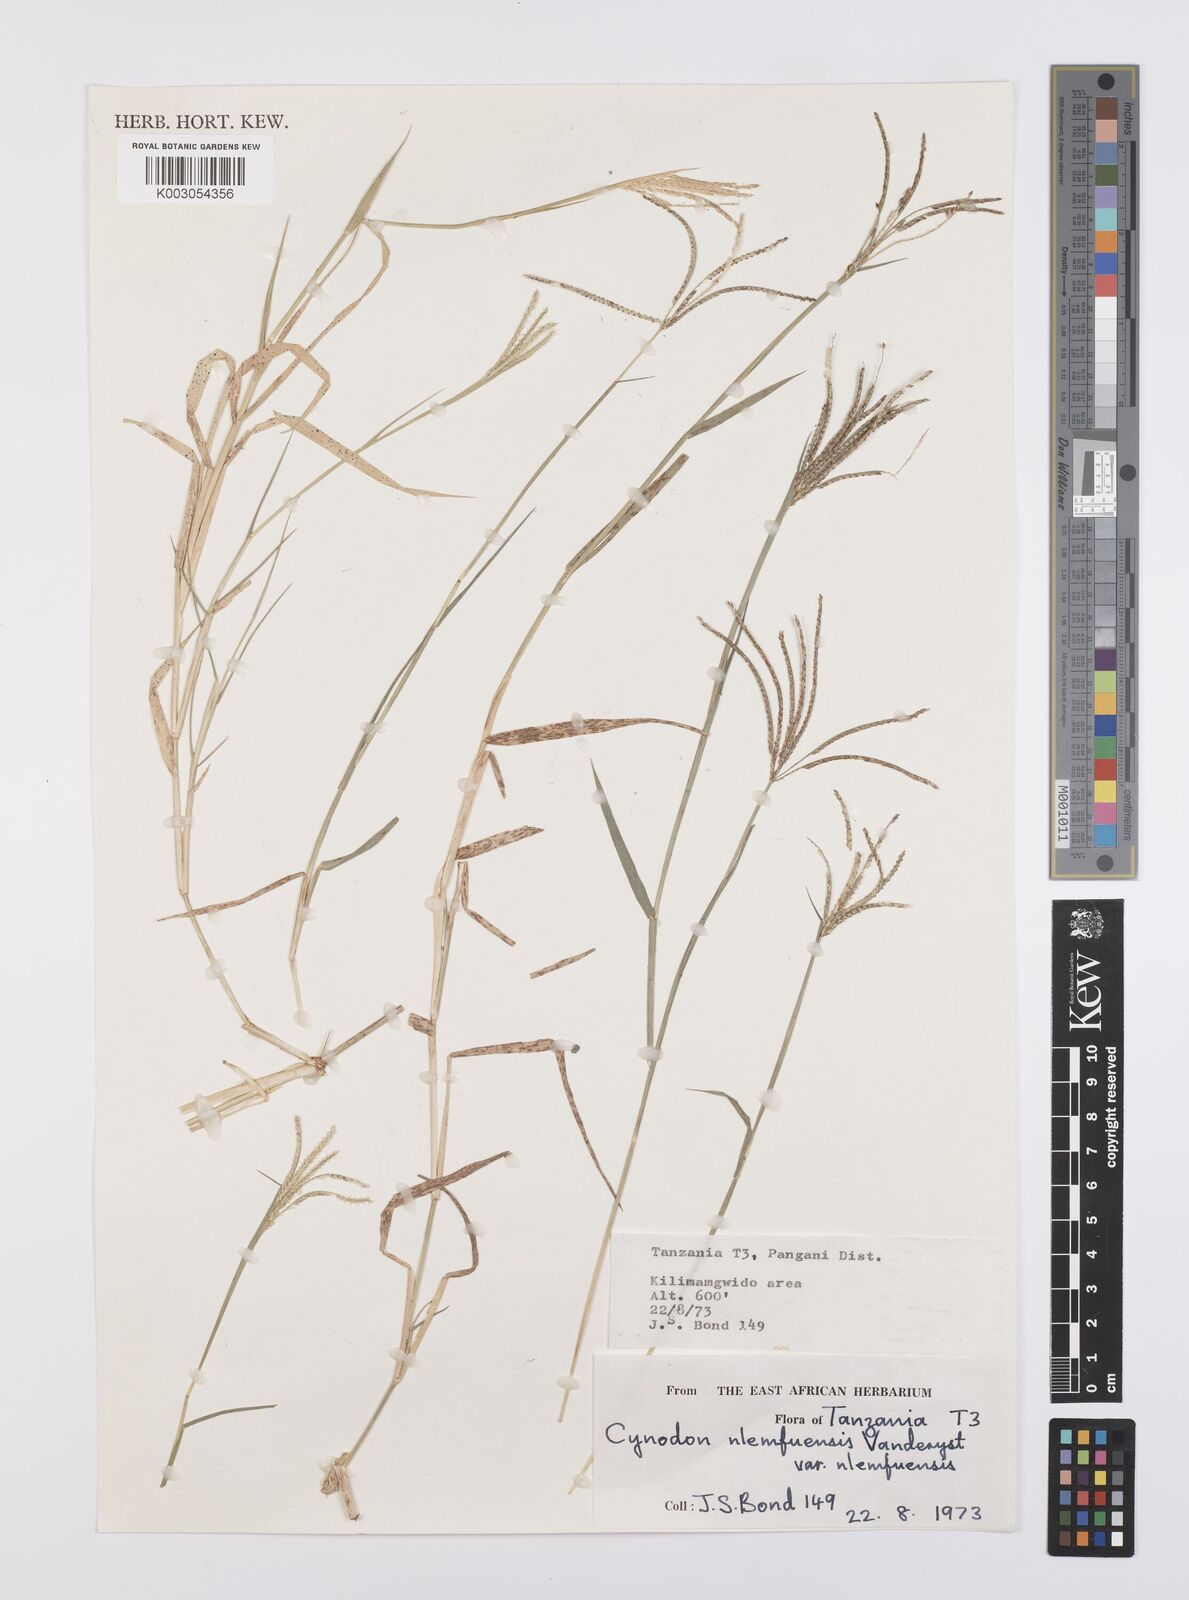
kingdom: Plantae
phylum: Tracheophyta
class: Liliopsida
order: Poales
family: Poaceae
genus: Cynodon
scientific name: Cynodon nlemfuensis
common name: African bermudagrass
